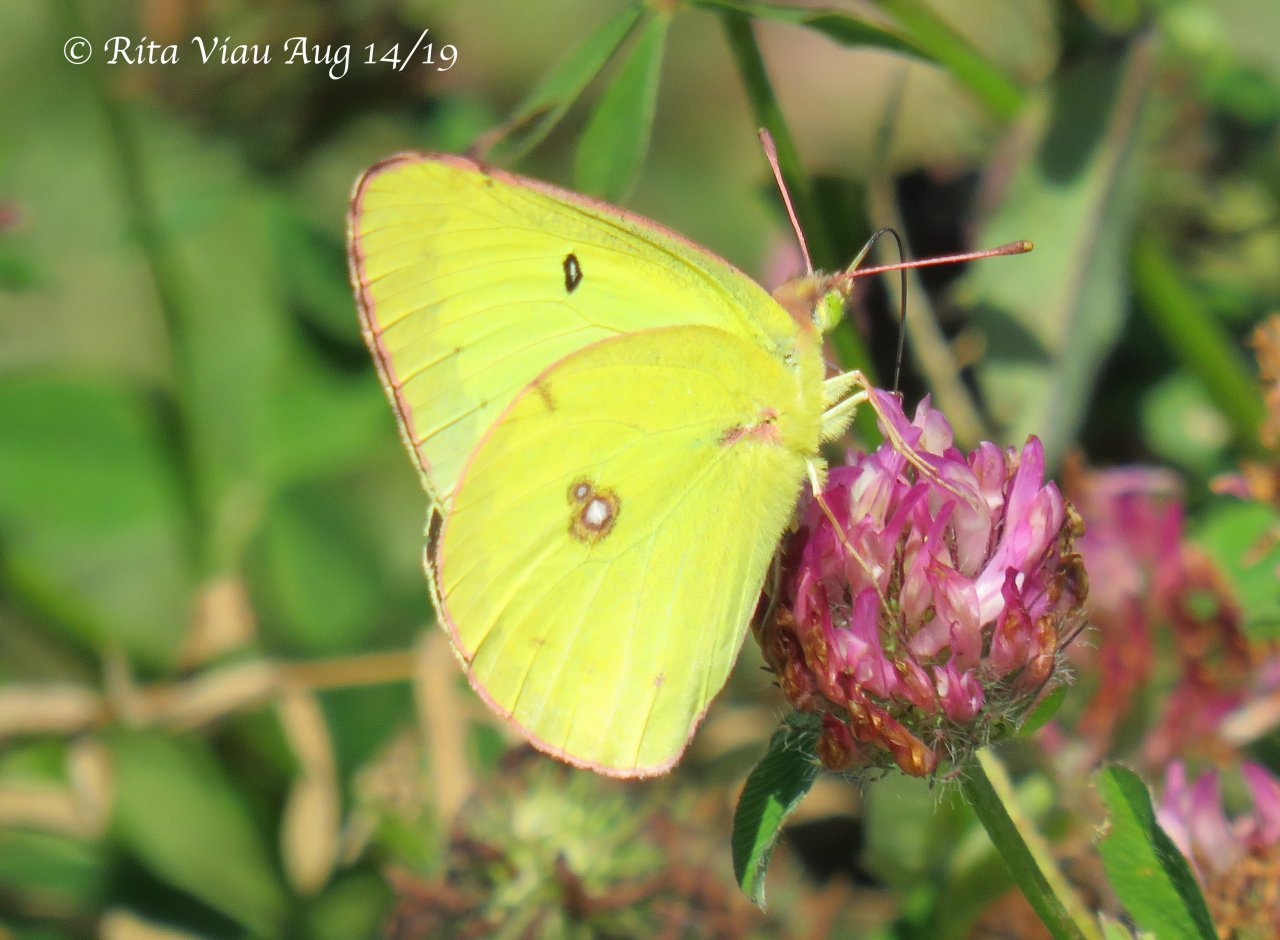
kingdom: Animalia
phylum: Arthropoda
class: Insecta
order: Lepidoptera
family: Pieridae
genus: Colias
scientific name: Colias philodice
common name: Clouded Sulphur
